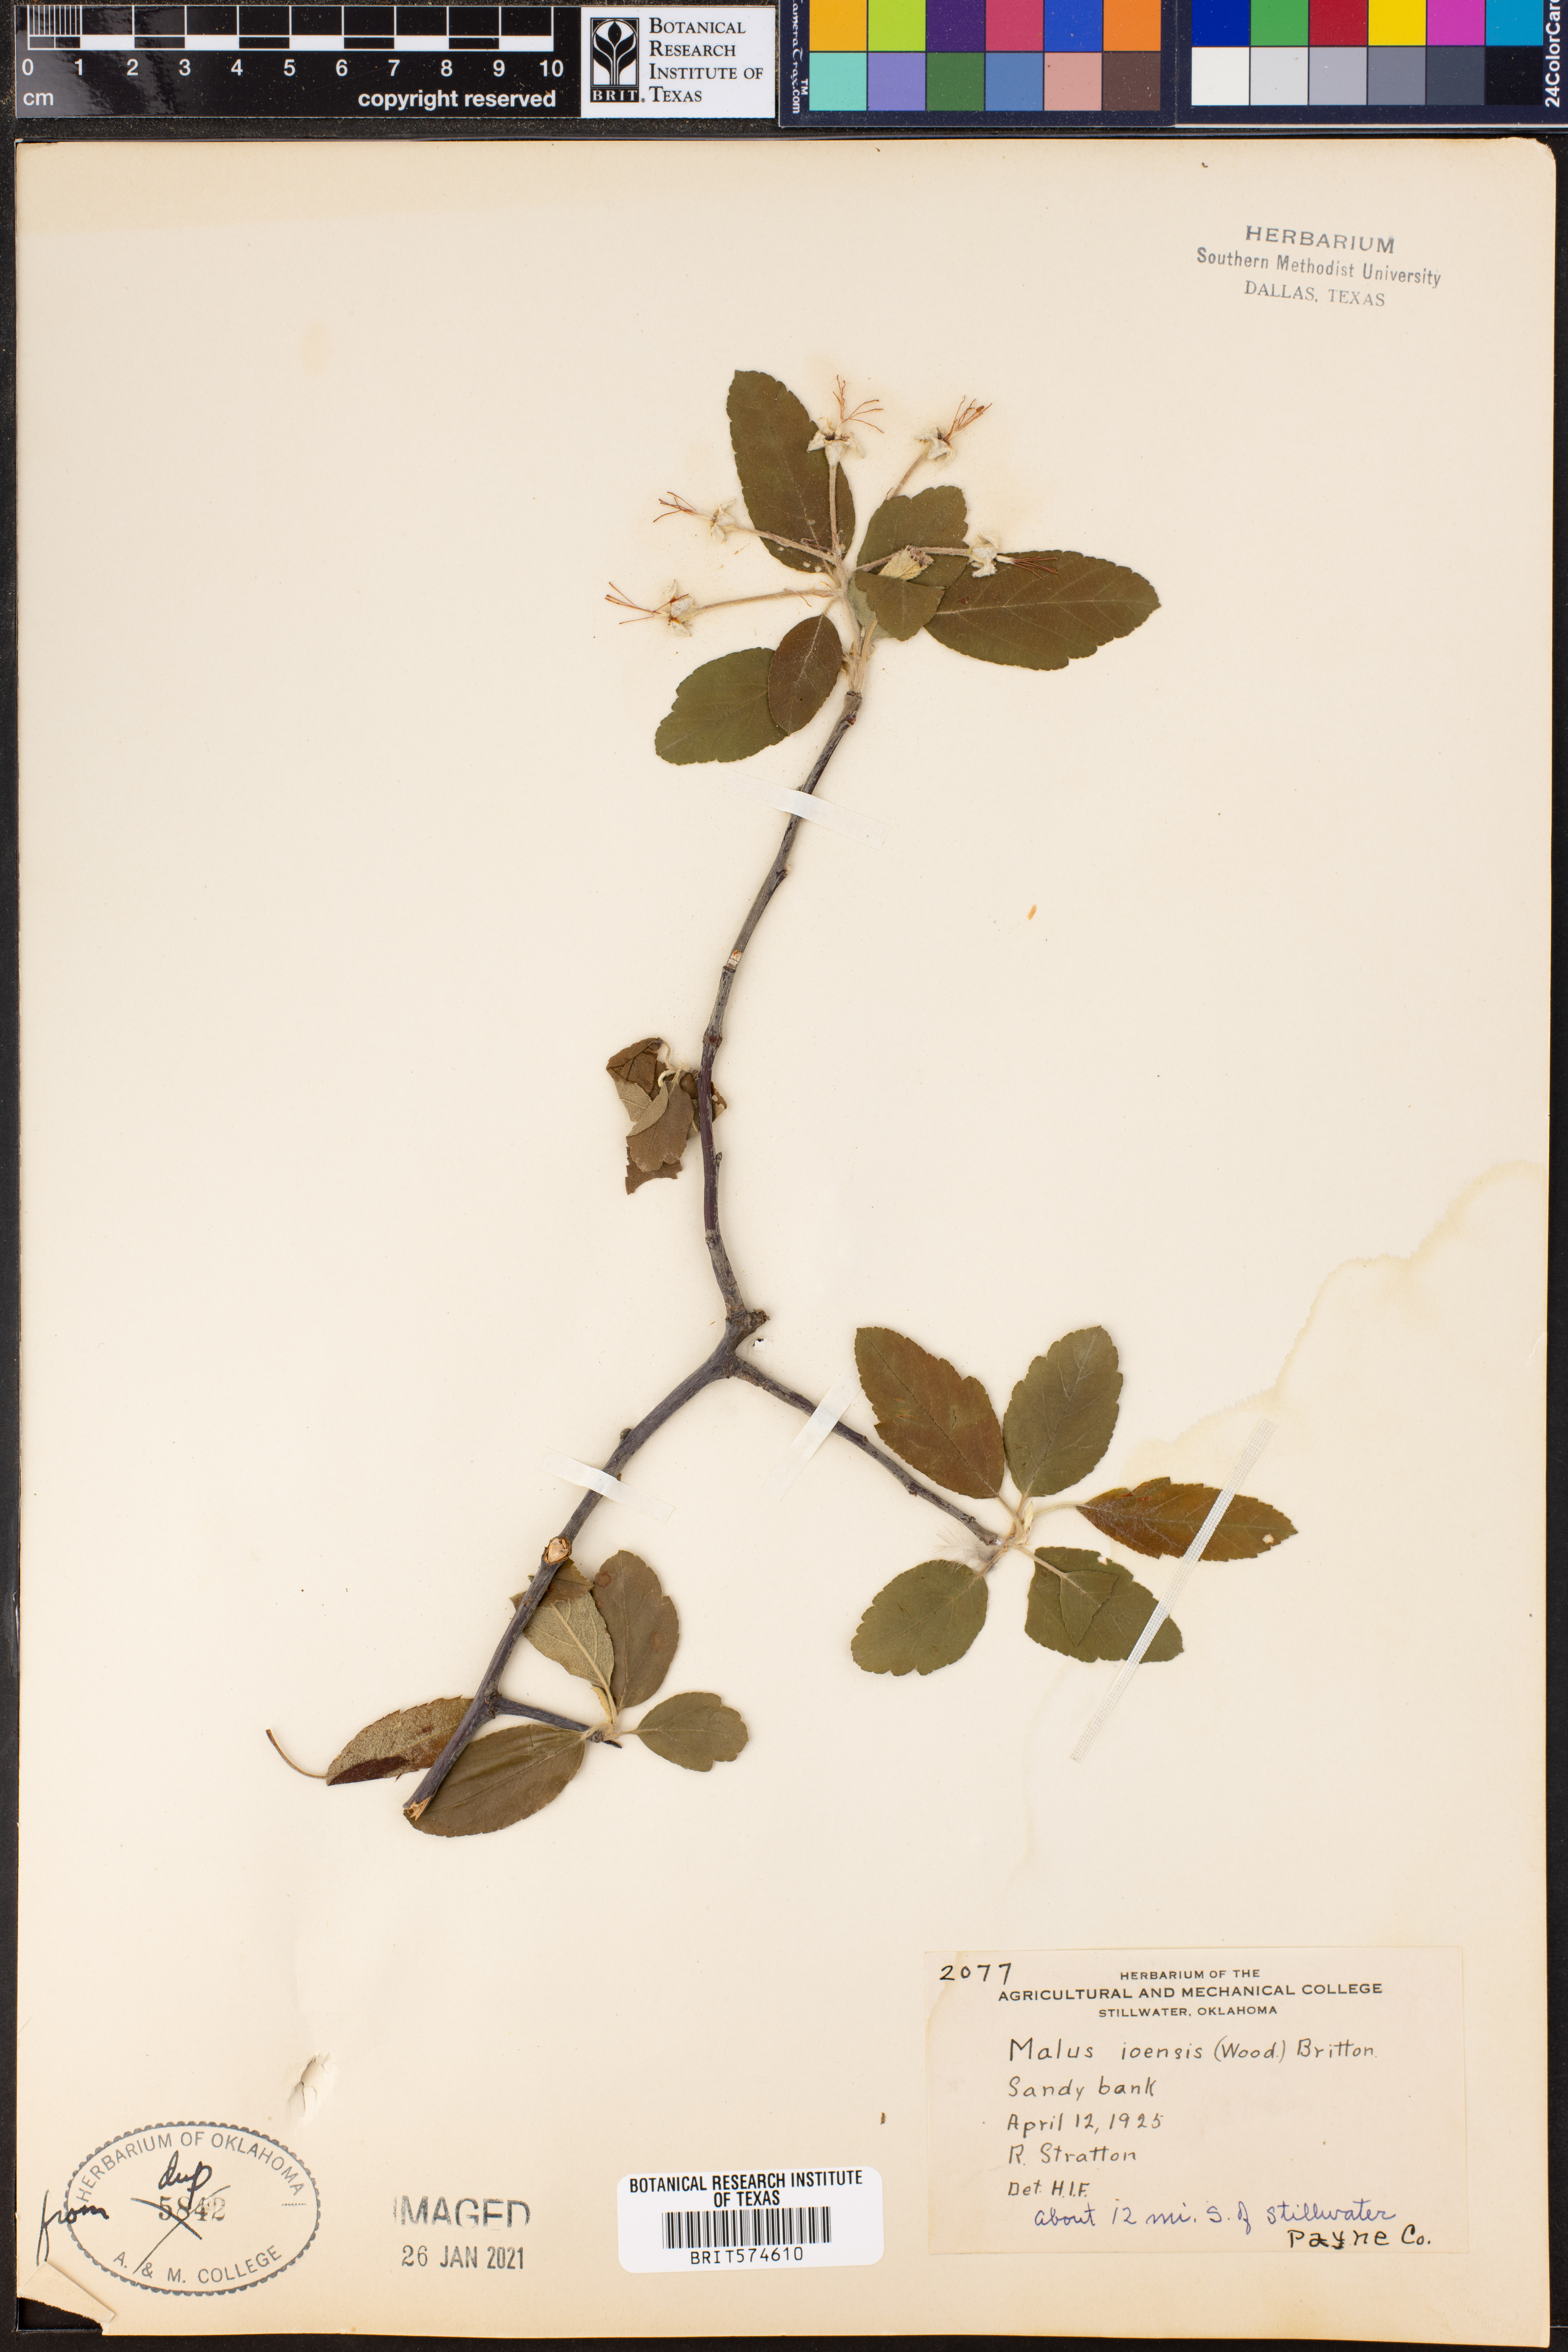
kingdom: Plantae
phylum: Tracheophyta
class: Magnoliopsida
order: Rosales
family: Rosaceae
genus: Malus
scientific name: Malus ioensis
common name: Iowa crab apple
